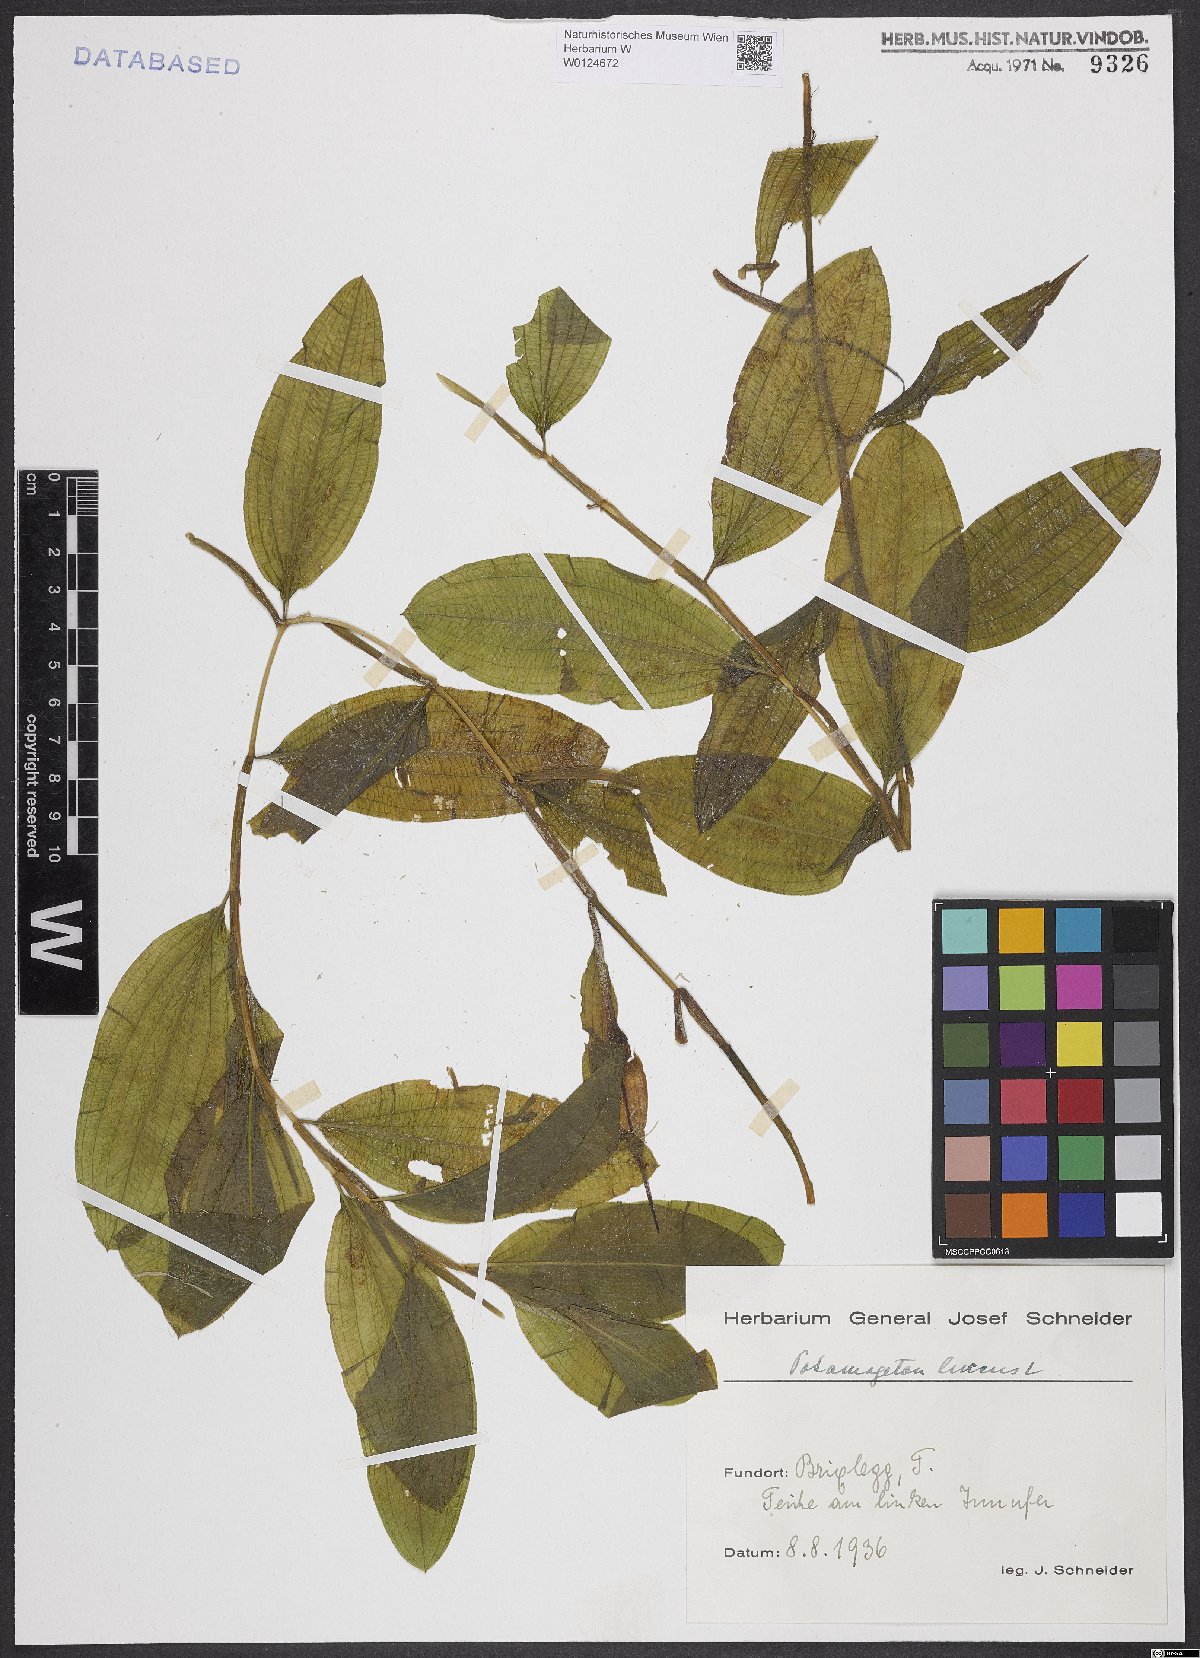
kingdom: Plantae
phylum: Tracheophyta
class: Liliopsida
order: Alismatales
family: Potamogetonaceae
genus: Potamogeton
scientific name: Potamogeton lucens
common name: Shining pondweed
